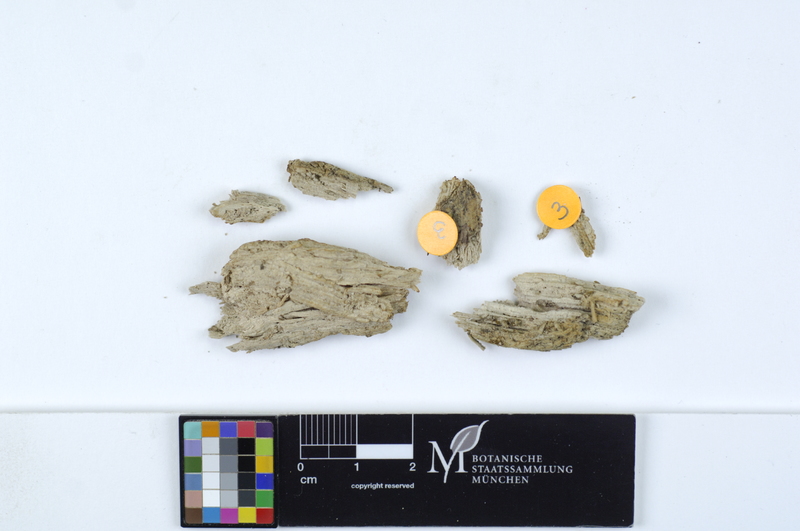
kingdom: Fungi
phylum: Basidiomycota
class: Agaricomycetes
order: Cantharellales
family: Botryobasidiaceae
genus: Botryobasidium
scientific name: Botryobasidium conspersum
